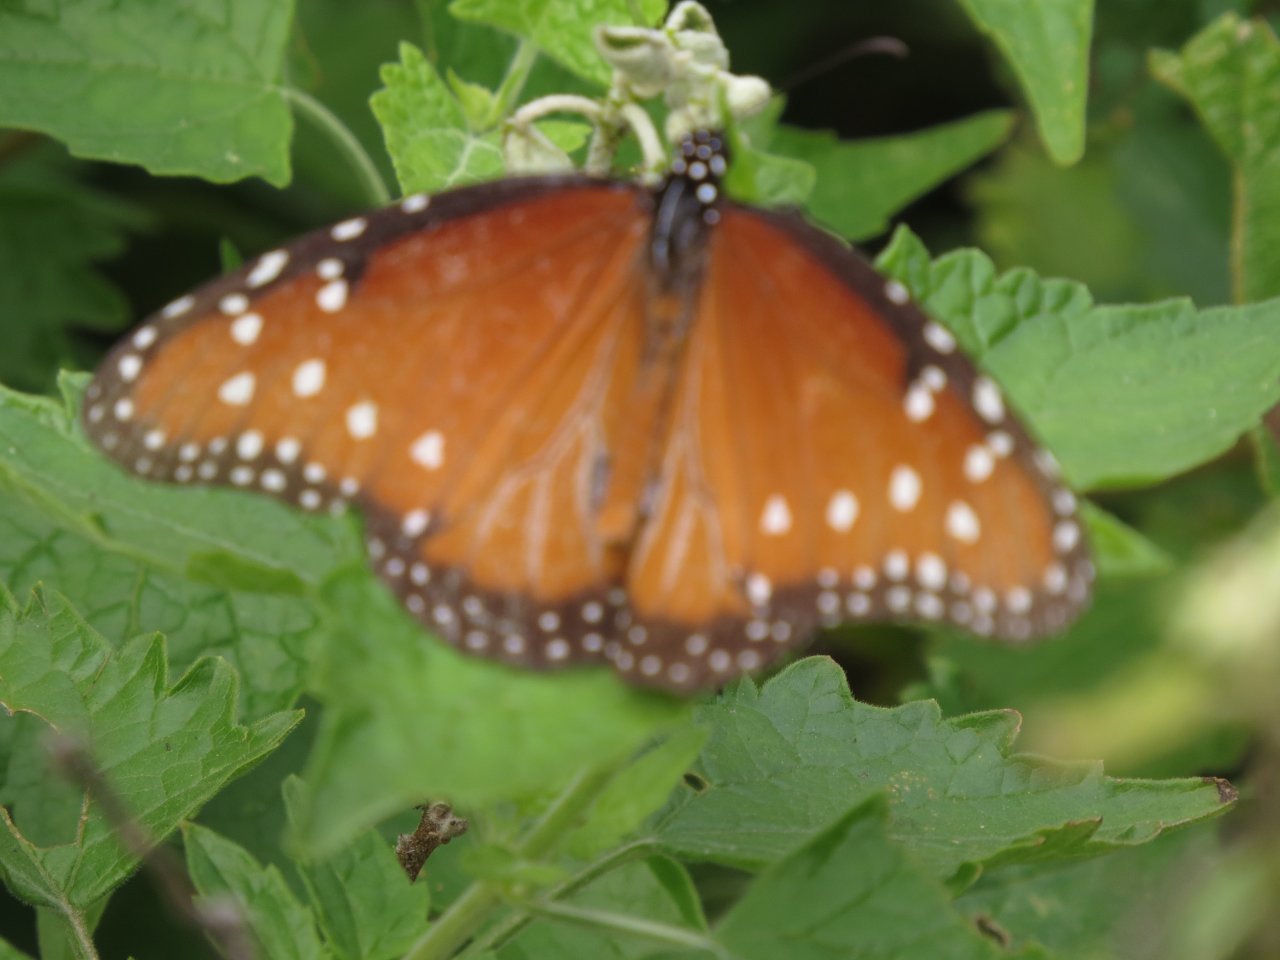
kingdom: Animalia
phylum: Arthropoda
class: Insecta
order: Lepidoptera
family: Nymphalidae
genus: Danaus
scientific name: Danaus gilippus
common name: Queen
